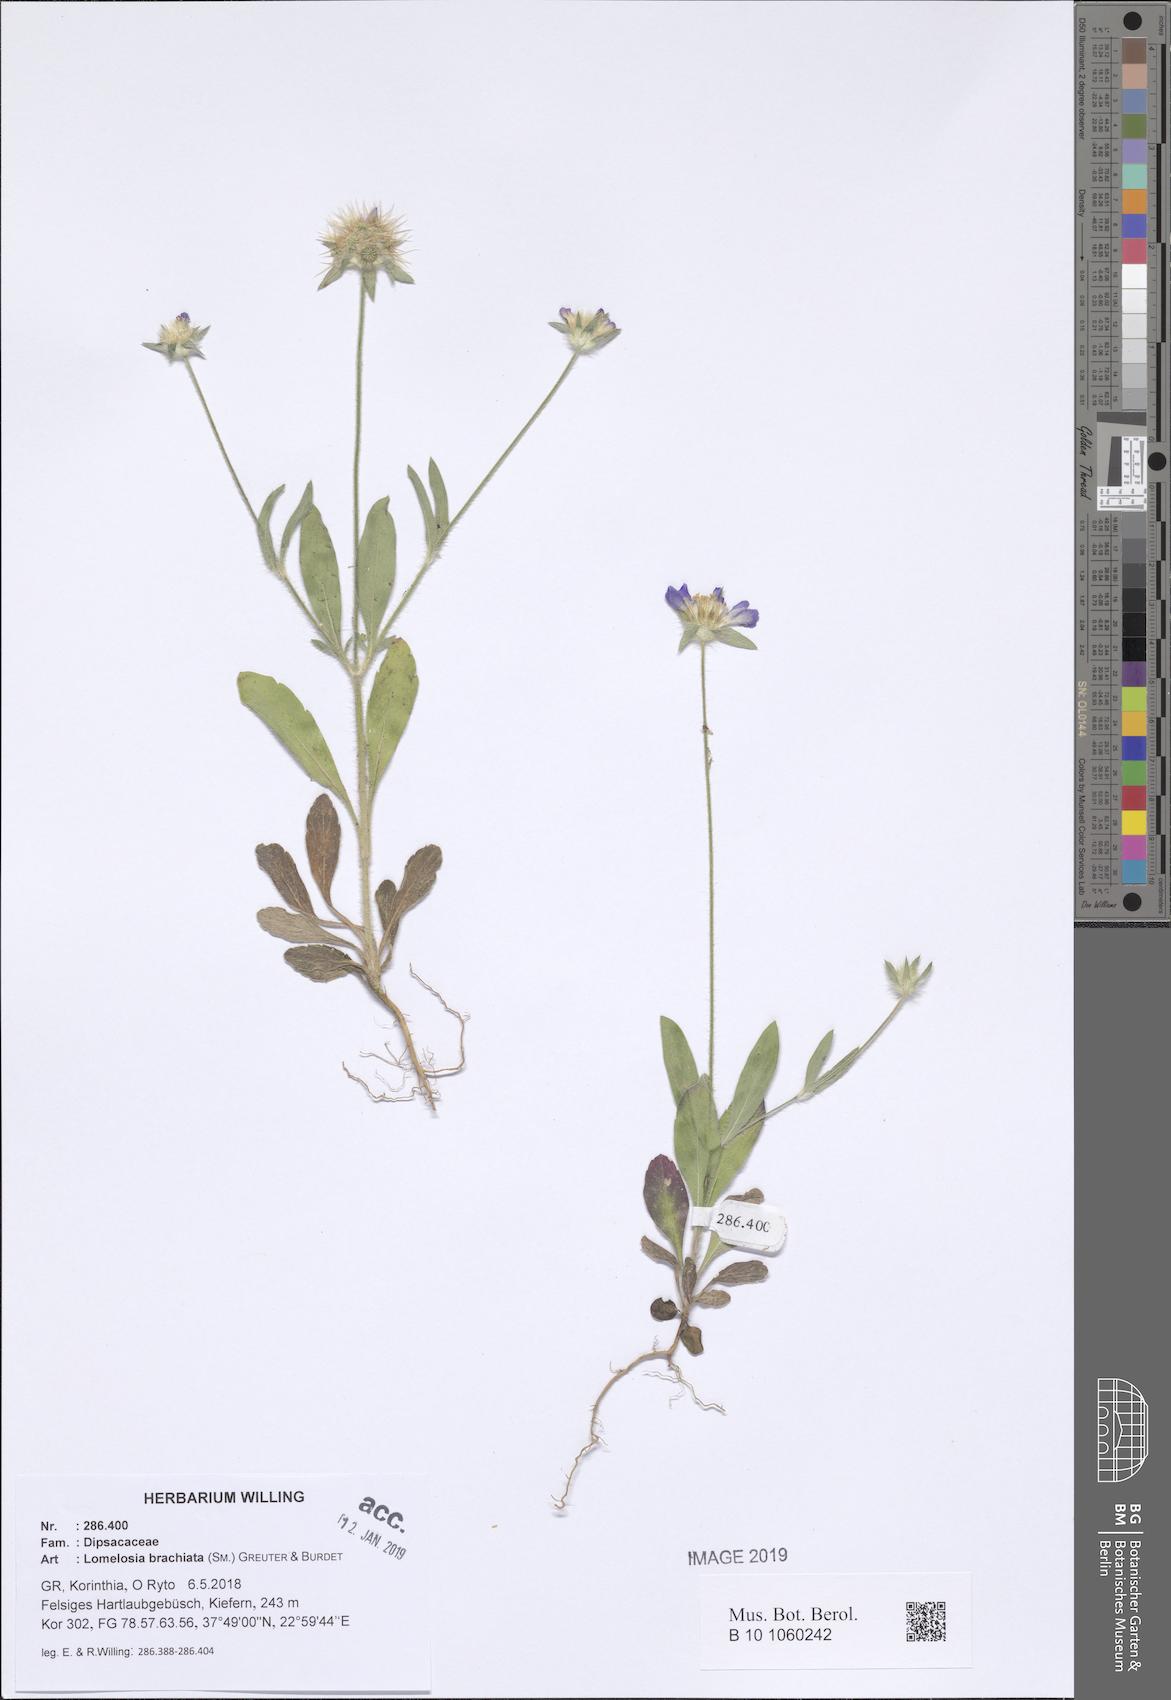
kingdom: Plantae
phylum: Tracheophyta
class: Magnoliopsida
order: Dipsacales
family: Caprifoliaceae
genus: Lomelosia
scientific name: Lomelosia brachiata
